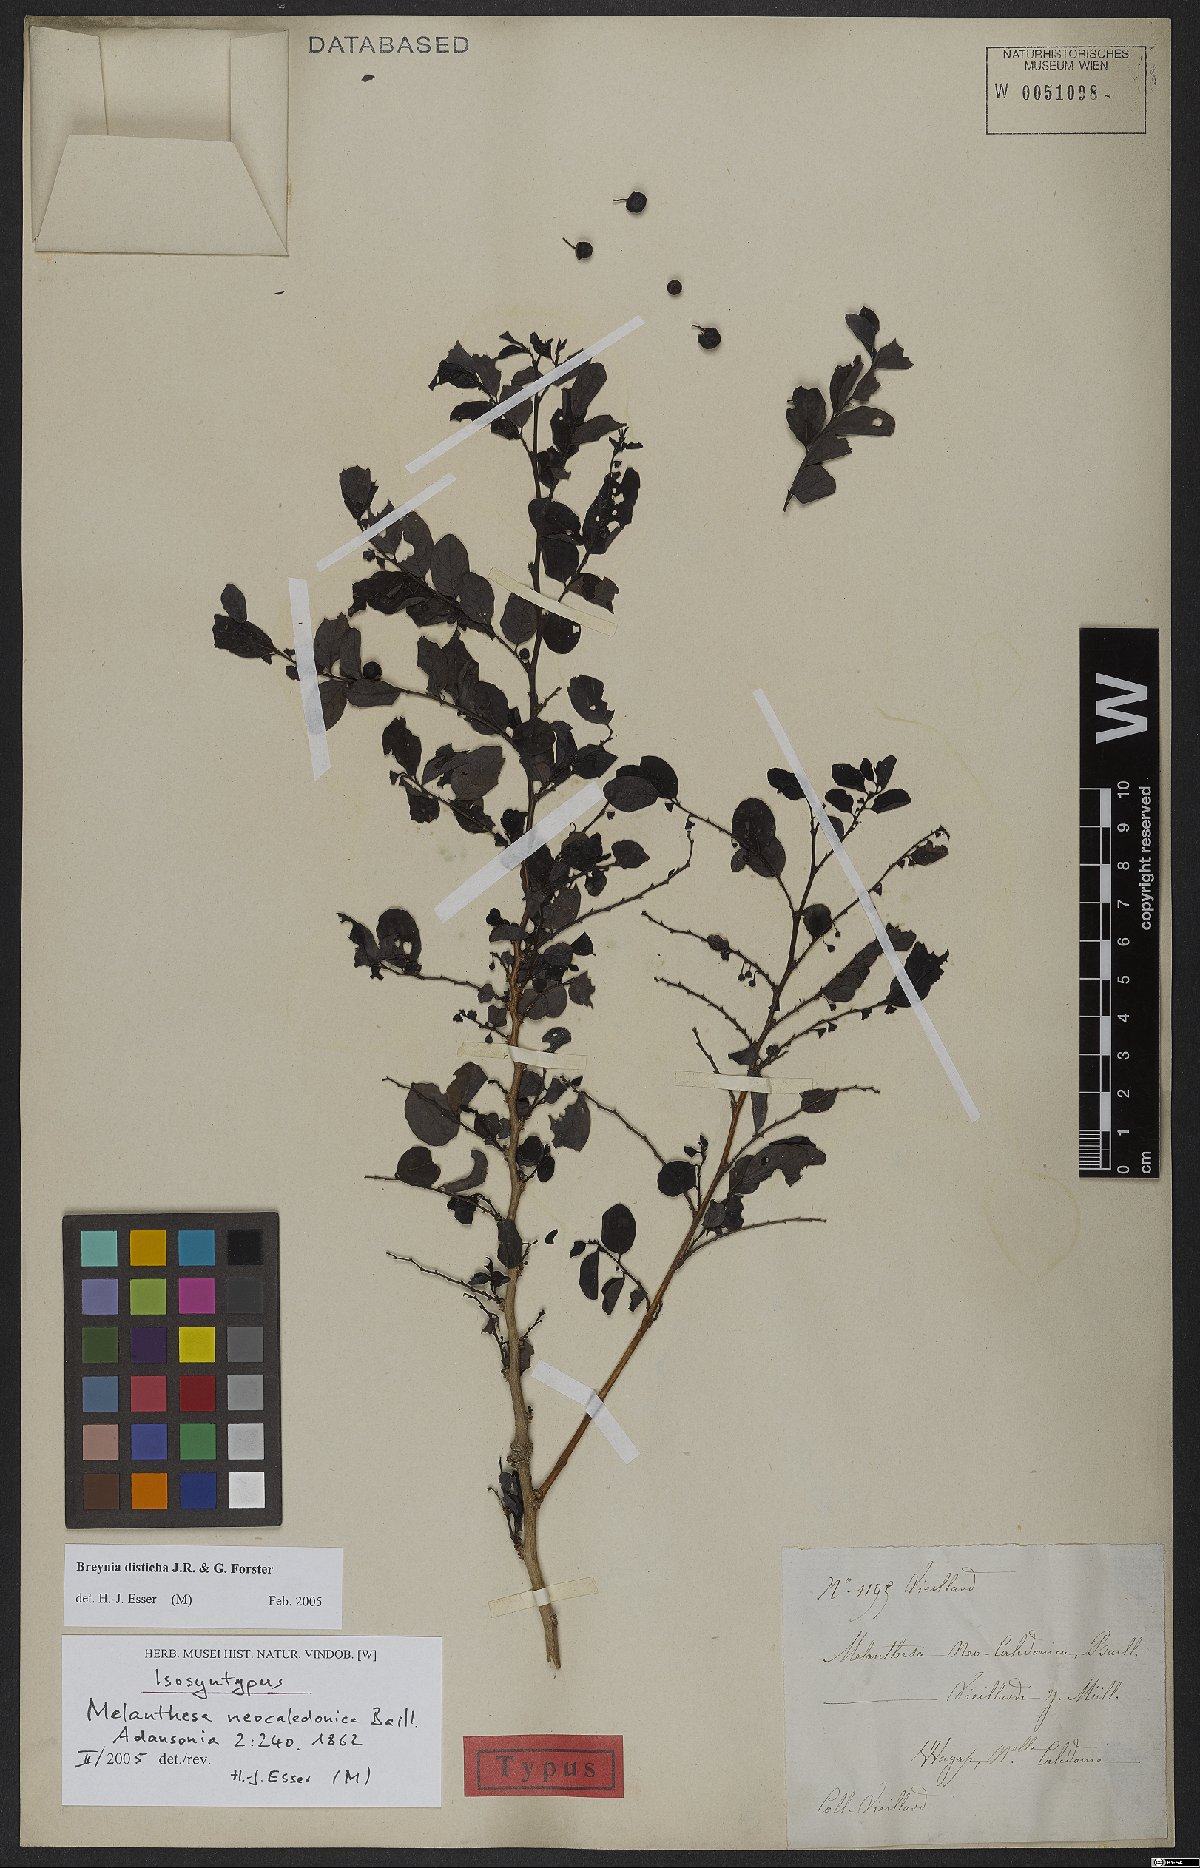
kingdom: Plantae
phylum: Tracheophyta
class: Magnoliopsida
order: Malpighiales
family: Phyllanthaceae
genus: Breynia
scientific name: Breynia disticha
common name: Snowbush
